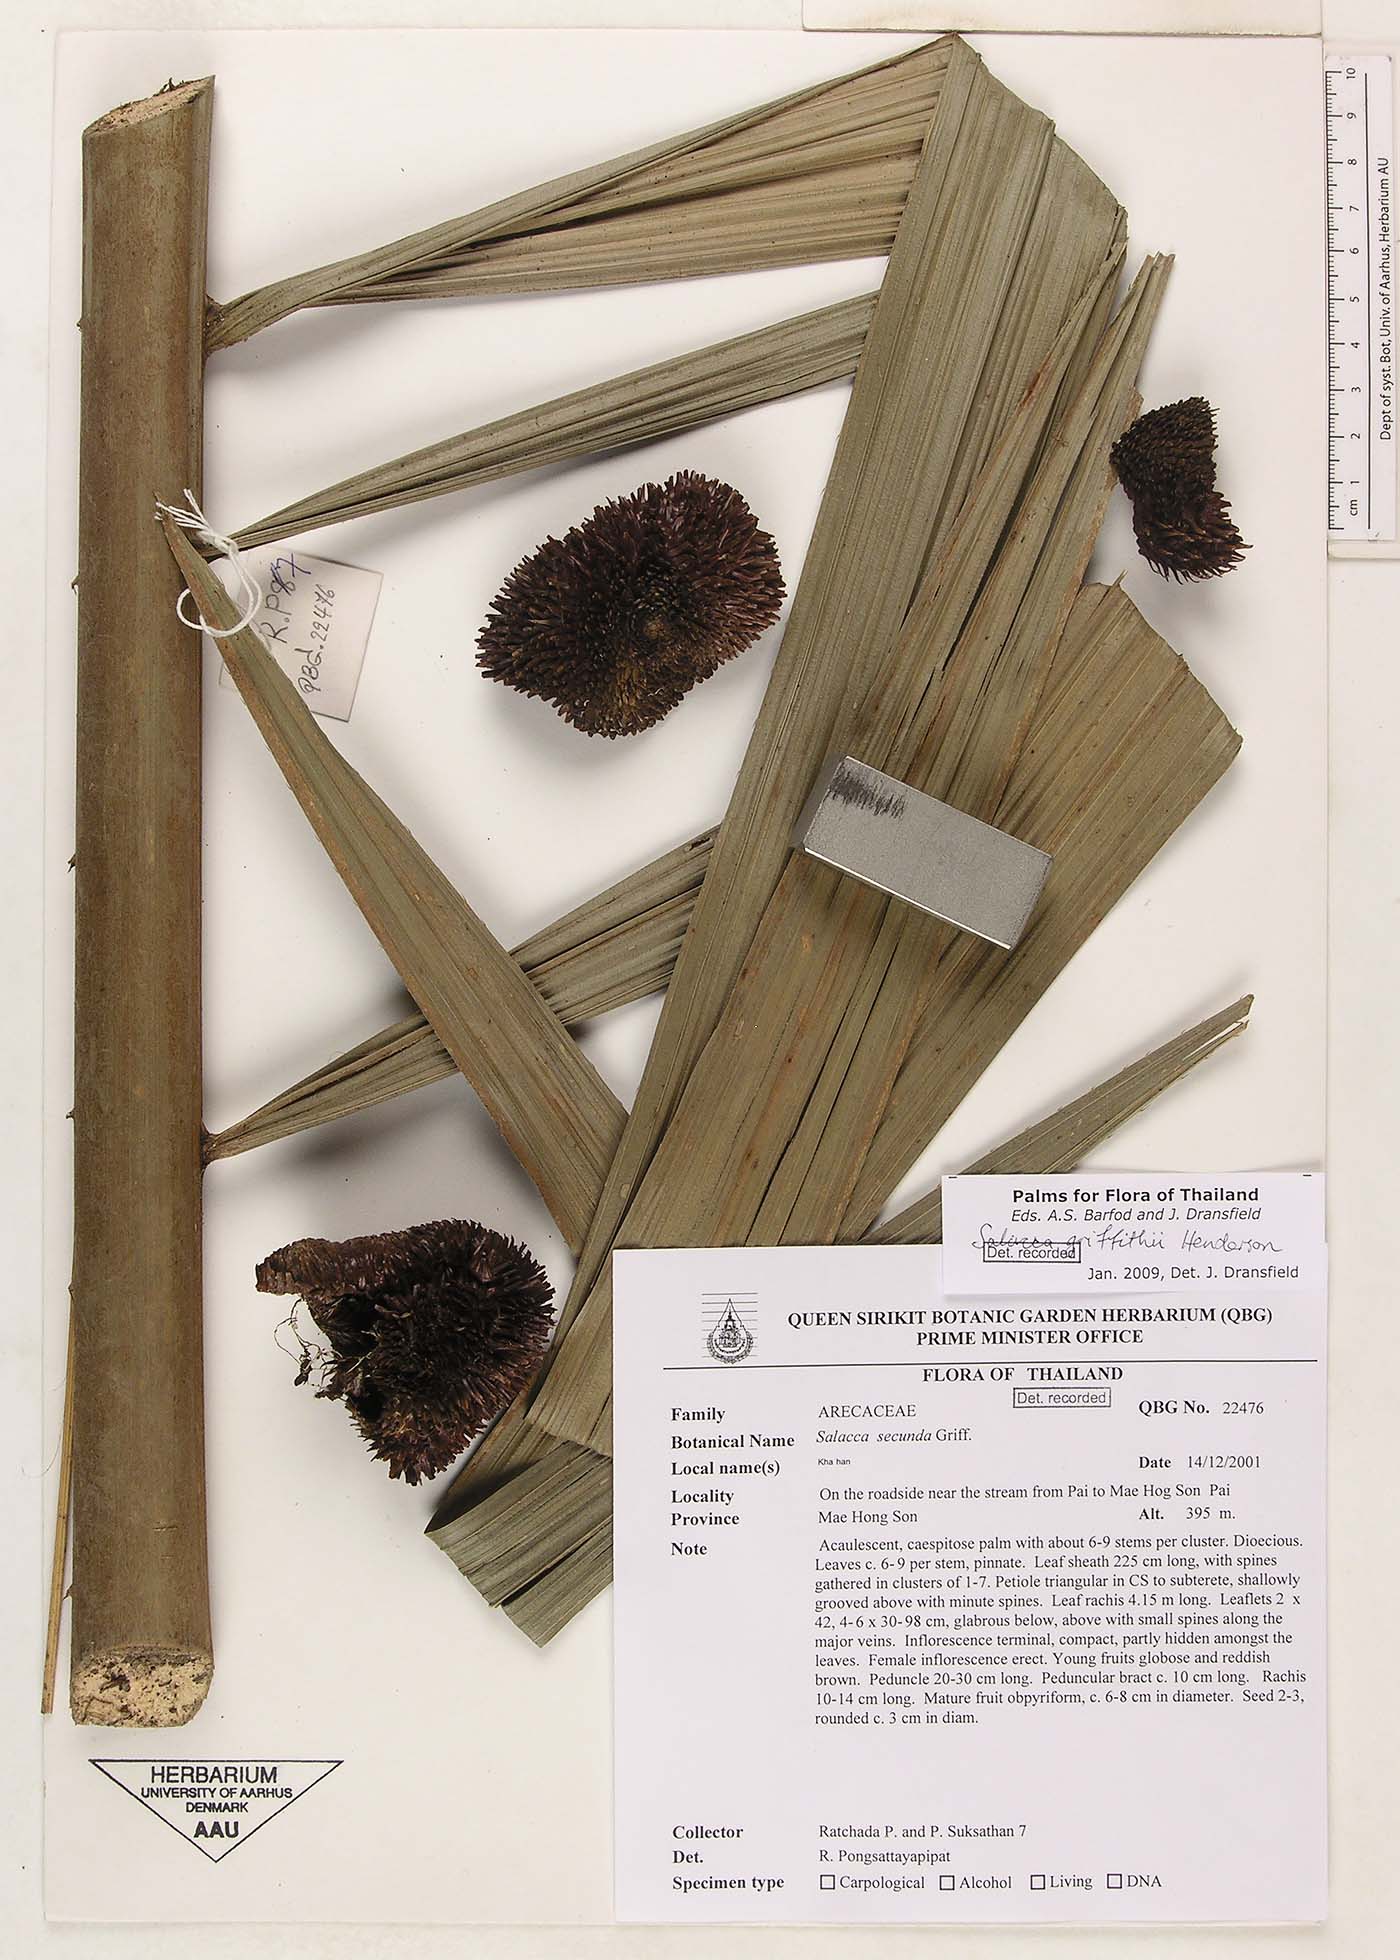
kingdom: Plantae
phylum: Tracheophyta
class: Liliopsida
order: Arecales
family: Arecaceae
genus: Salacca
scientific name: Salacca griffithii
